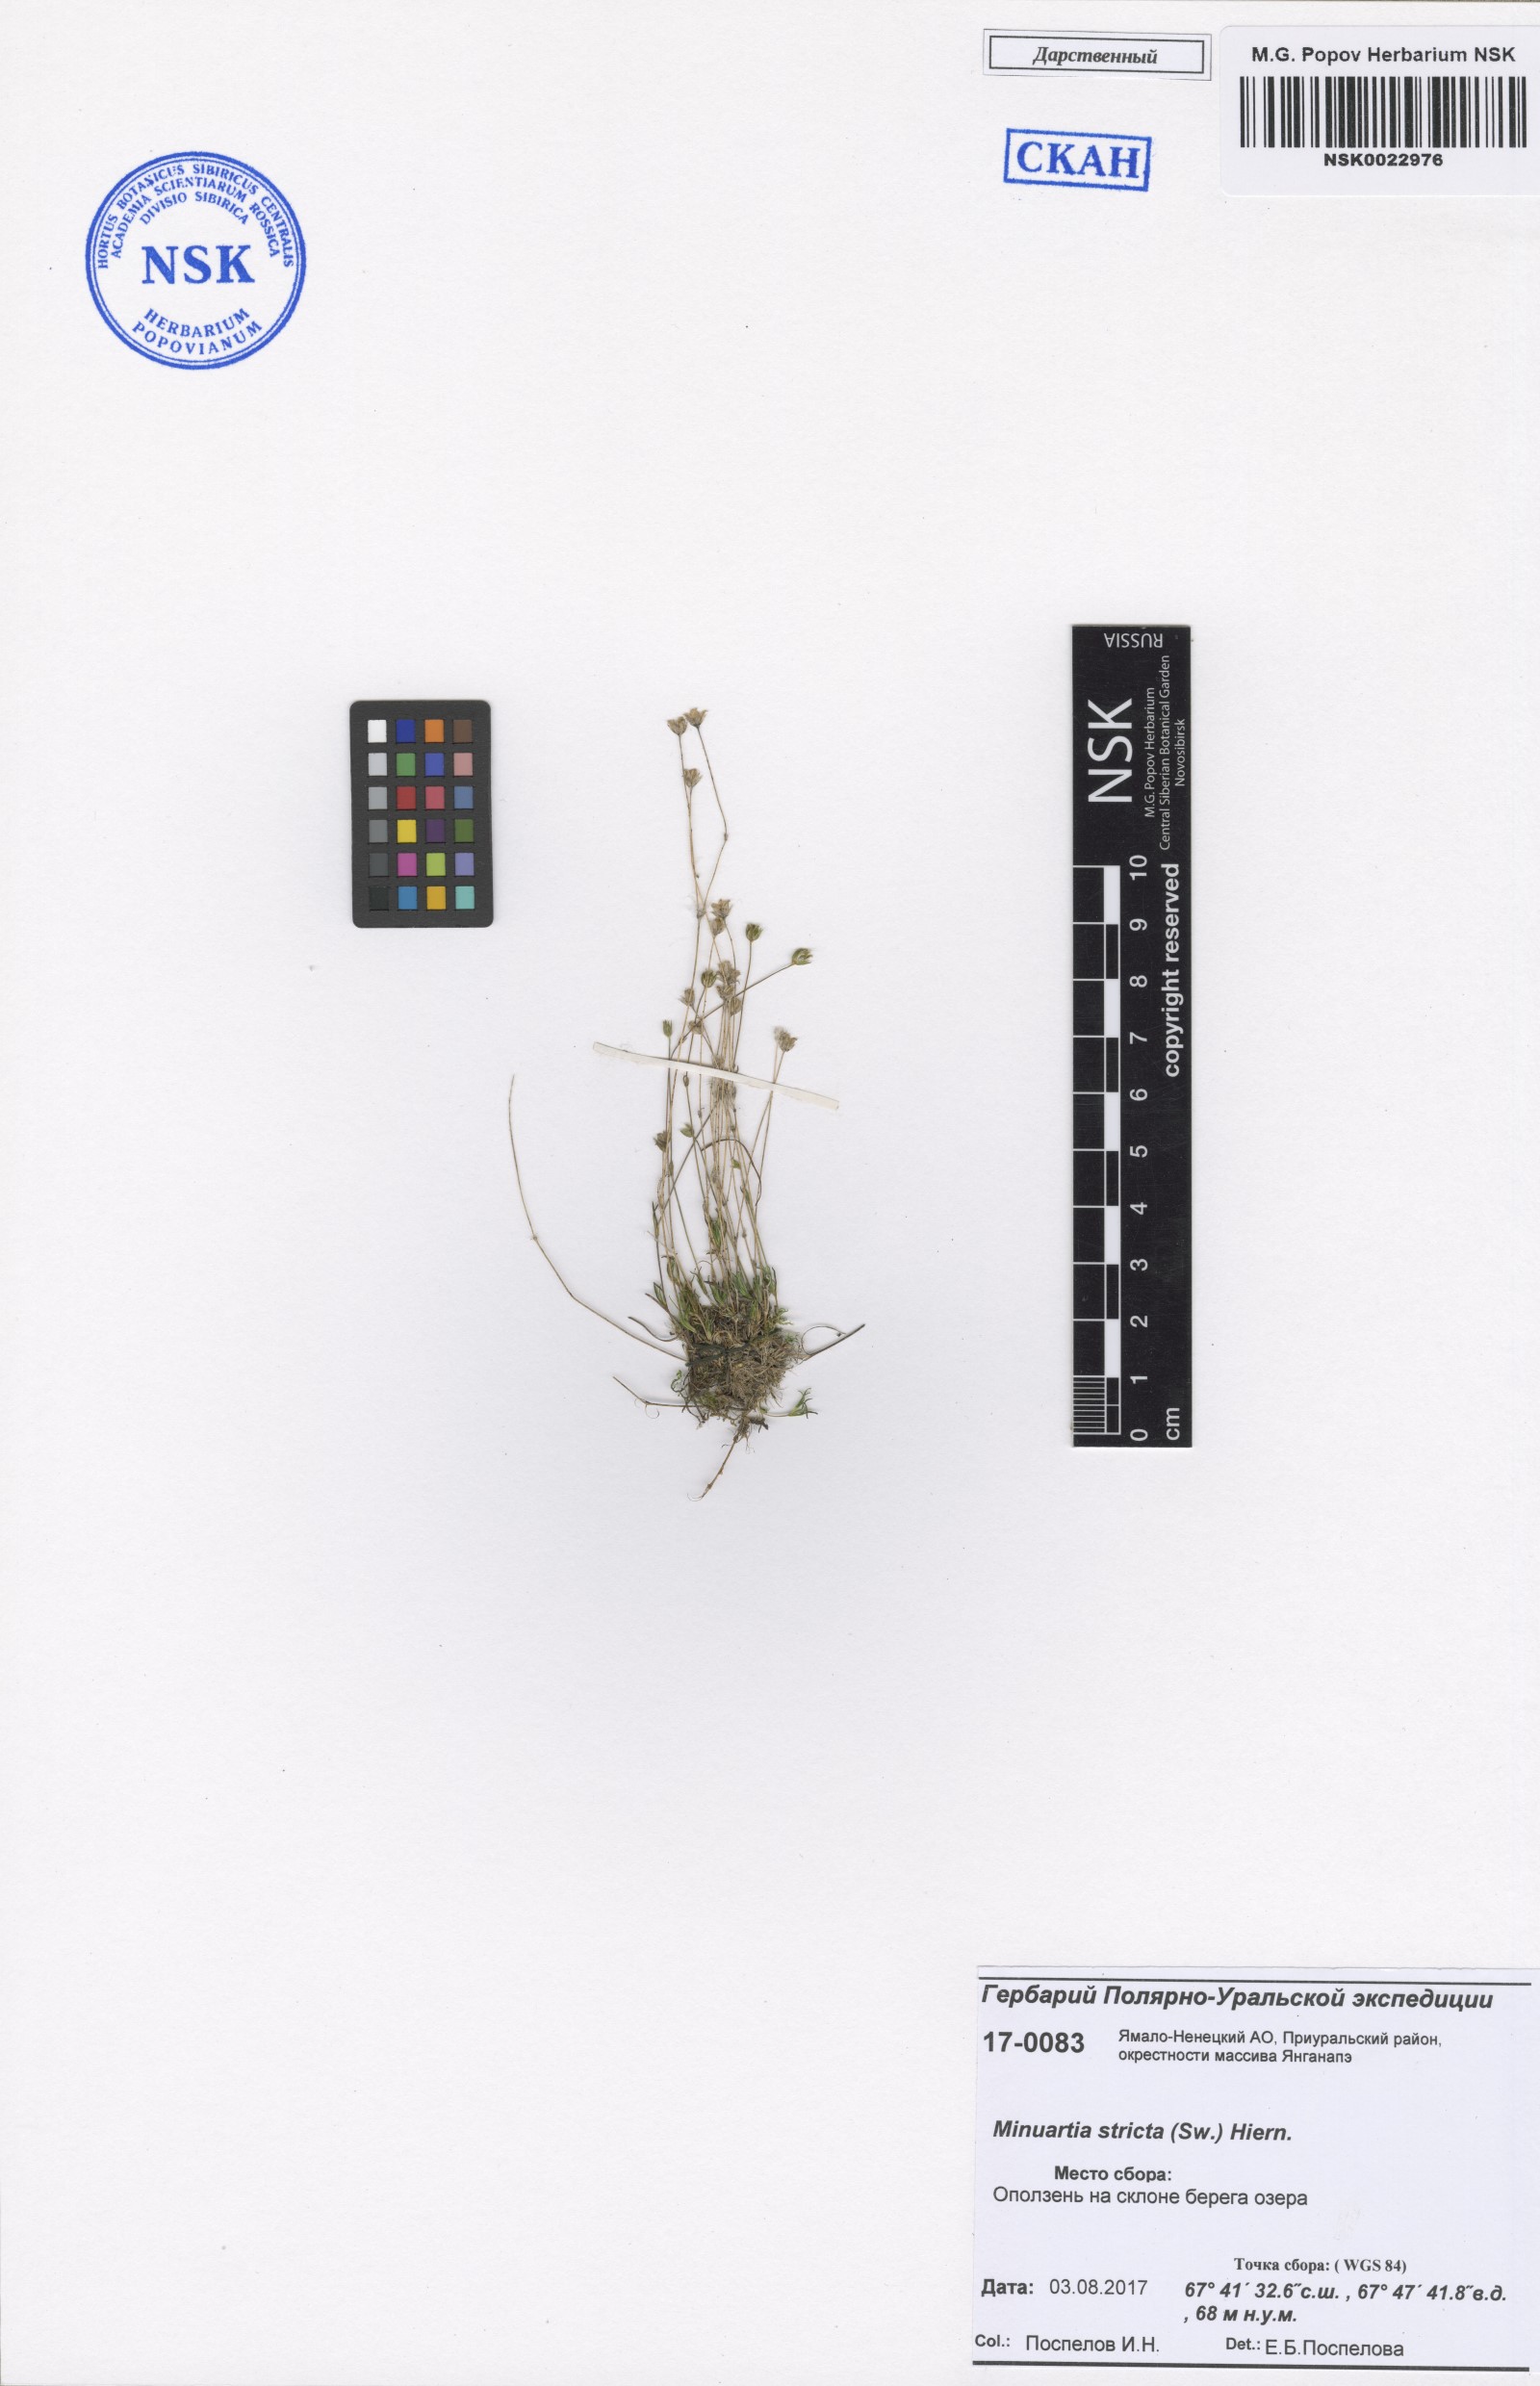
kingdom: Plantae
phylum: Tracheophyta
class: Magnoliopsida
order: Caryophyllales
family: Caryophyllaceae
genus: Sabulina
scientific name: Sabulina stricta
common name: Bog sandwort
